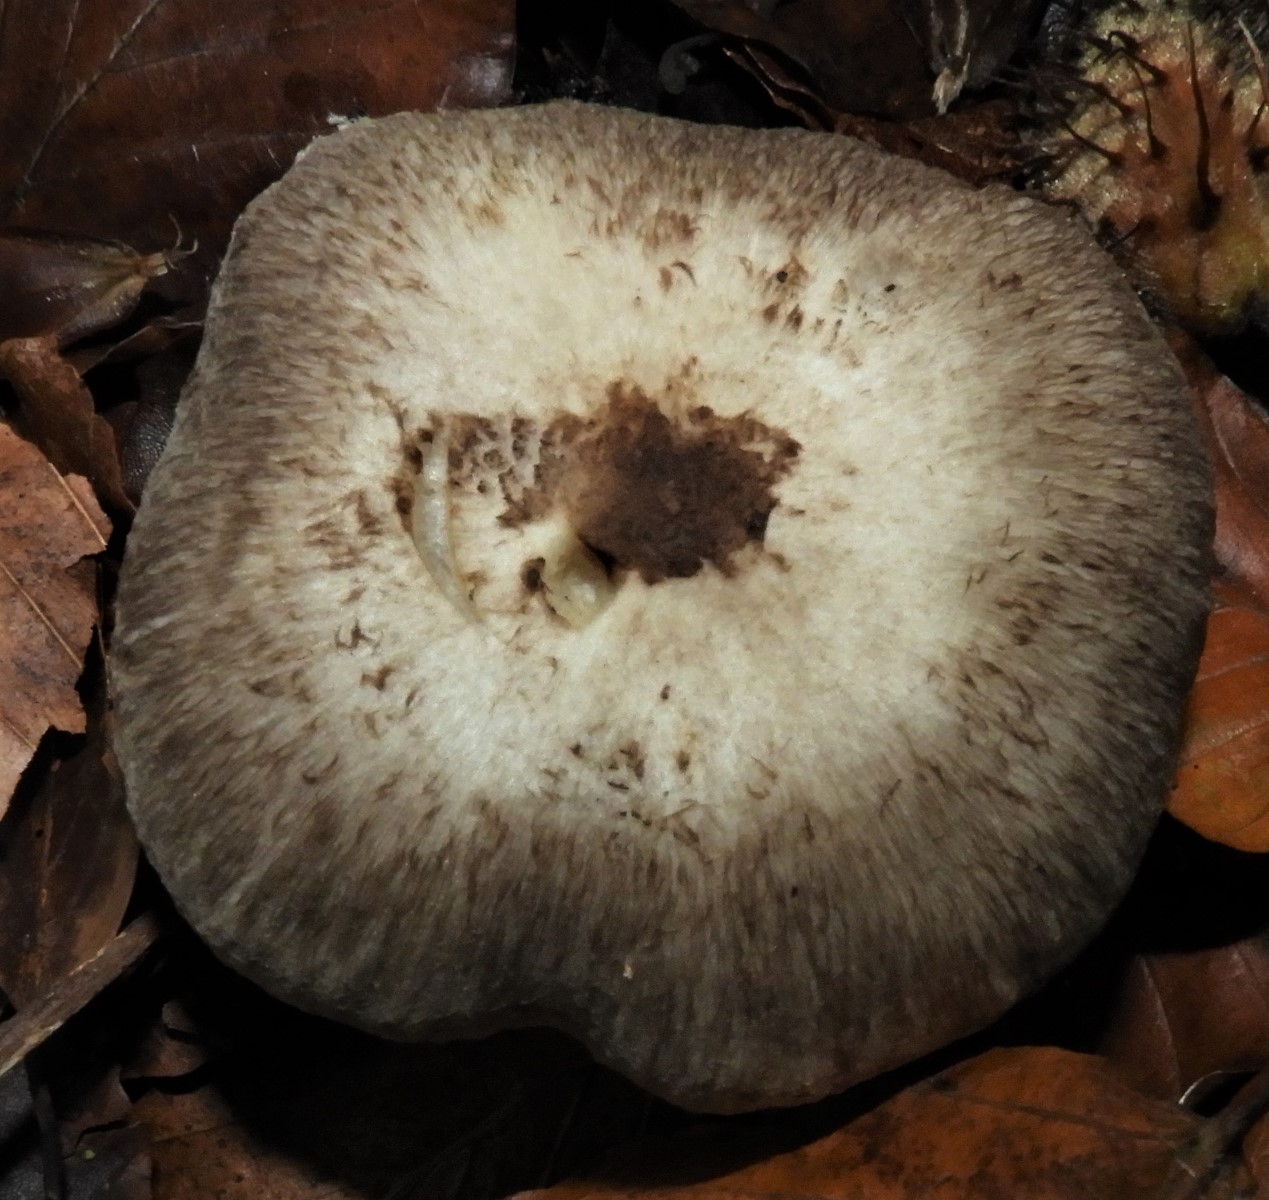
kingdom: Fungi
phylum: Basidiomycota
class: Agaricomycetes
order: Agaricales
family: Tricholomataceae
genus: Tricholoma
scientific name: Tricholoma scalpturatum
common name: gulplettet ridderhat
